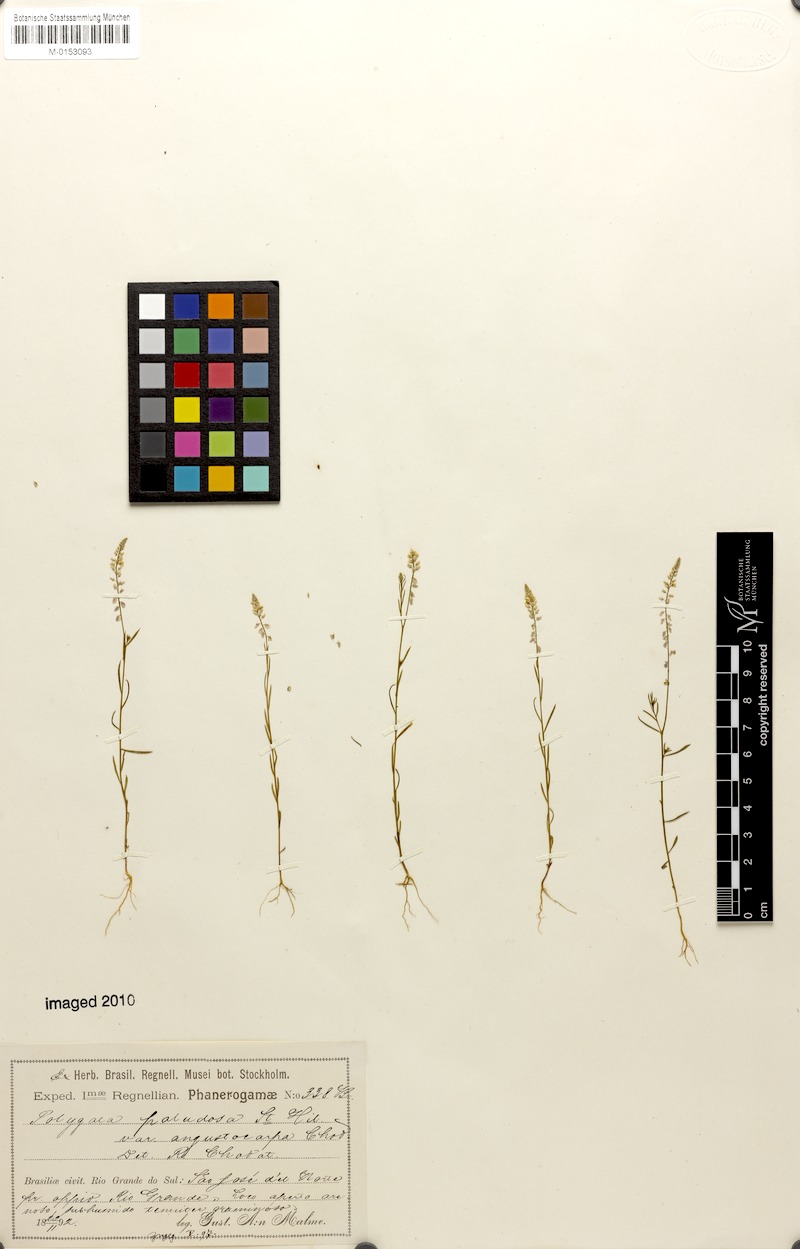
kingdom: Plantae
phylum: Tracheophyta
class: Magnoliopsida
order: Fabales
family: Polygalaceae
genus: Polygala
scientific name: Polygala tenella
